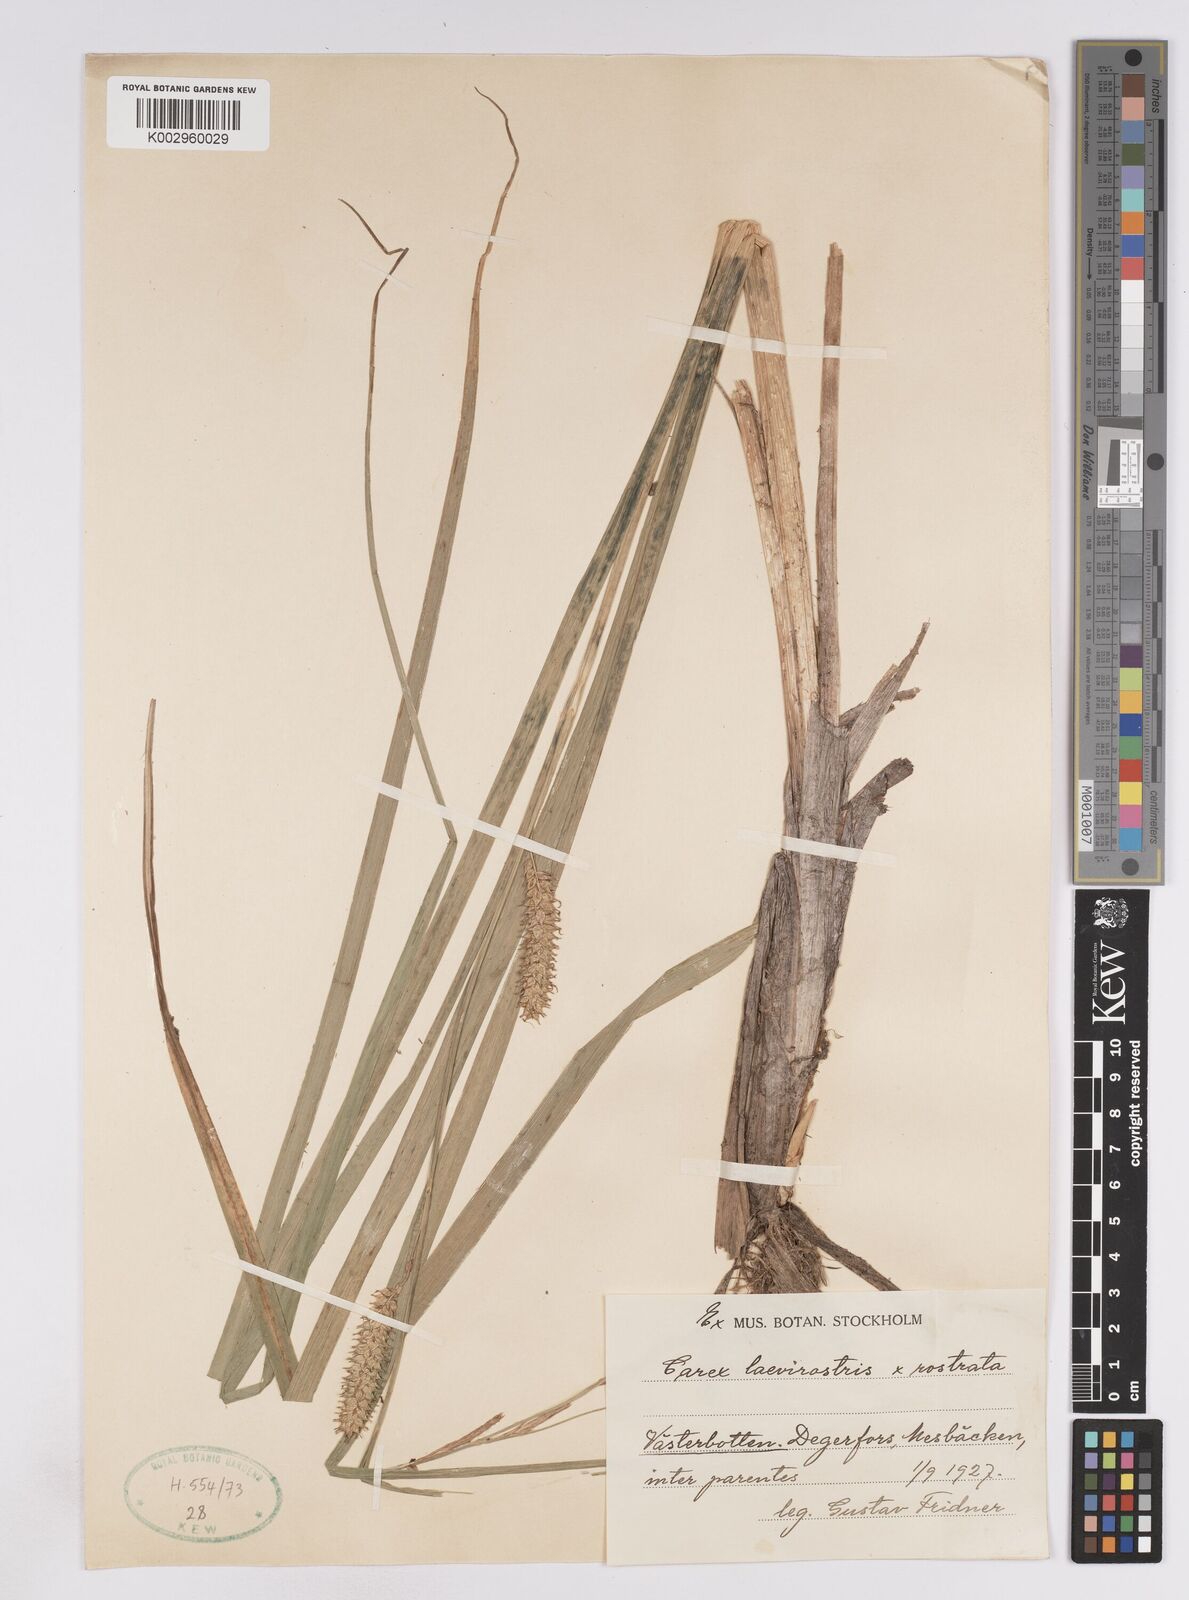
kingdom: Plantae
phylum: Tracheophyta
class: Liliopsida
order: Poales
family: Cyperaceae
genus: Carex
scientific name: Carex
